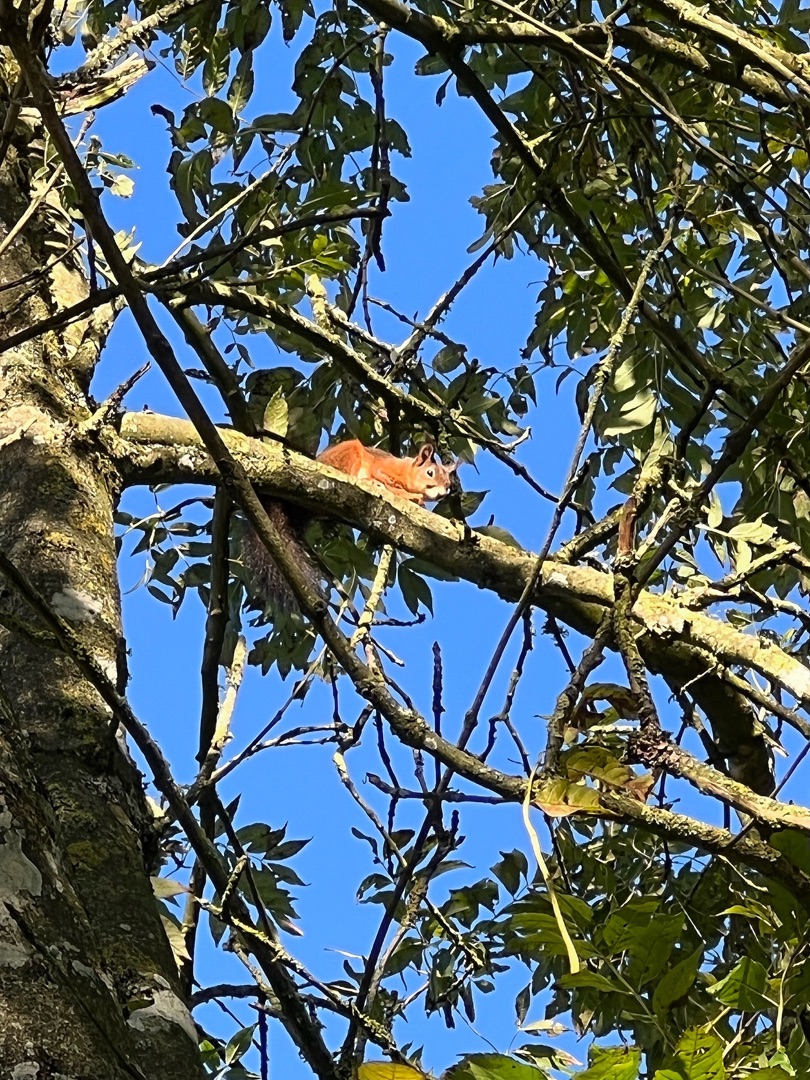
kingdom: Animalia
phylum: Chordata
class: Mammalia
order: Rodentia
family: Sciuridae
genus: Sciurus
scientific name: Sciurus vulgaris
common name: Egern
